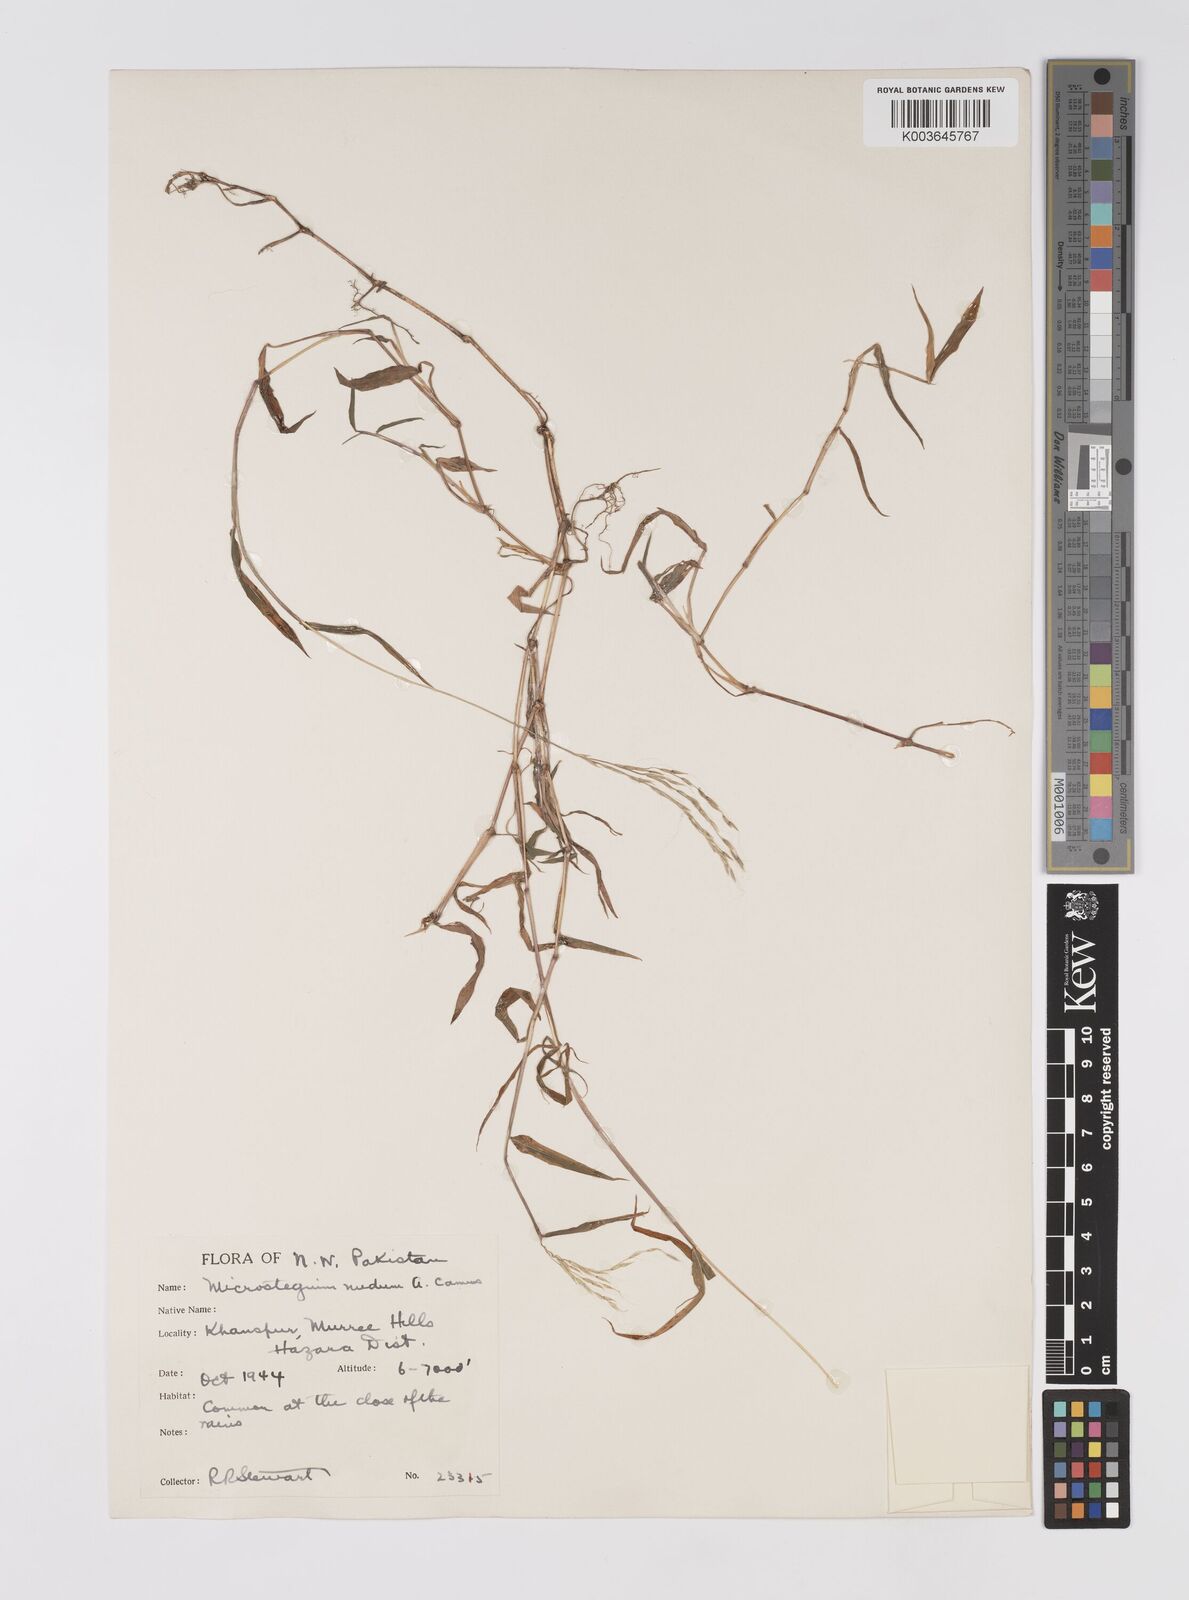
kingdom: Plantae
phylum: Tracheophyta
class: Liliopsida
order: Poales
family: Poaceae
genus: Microstegium
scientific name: Microstegium nudum
